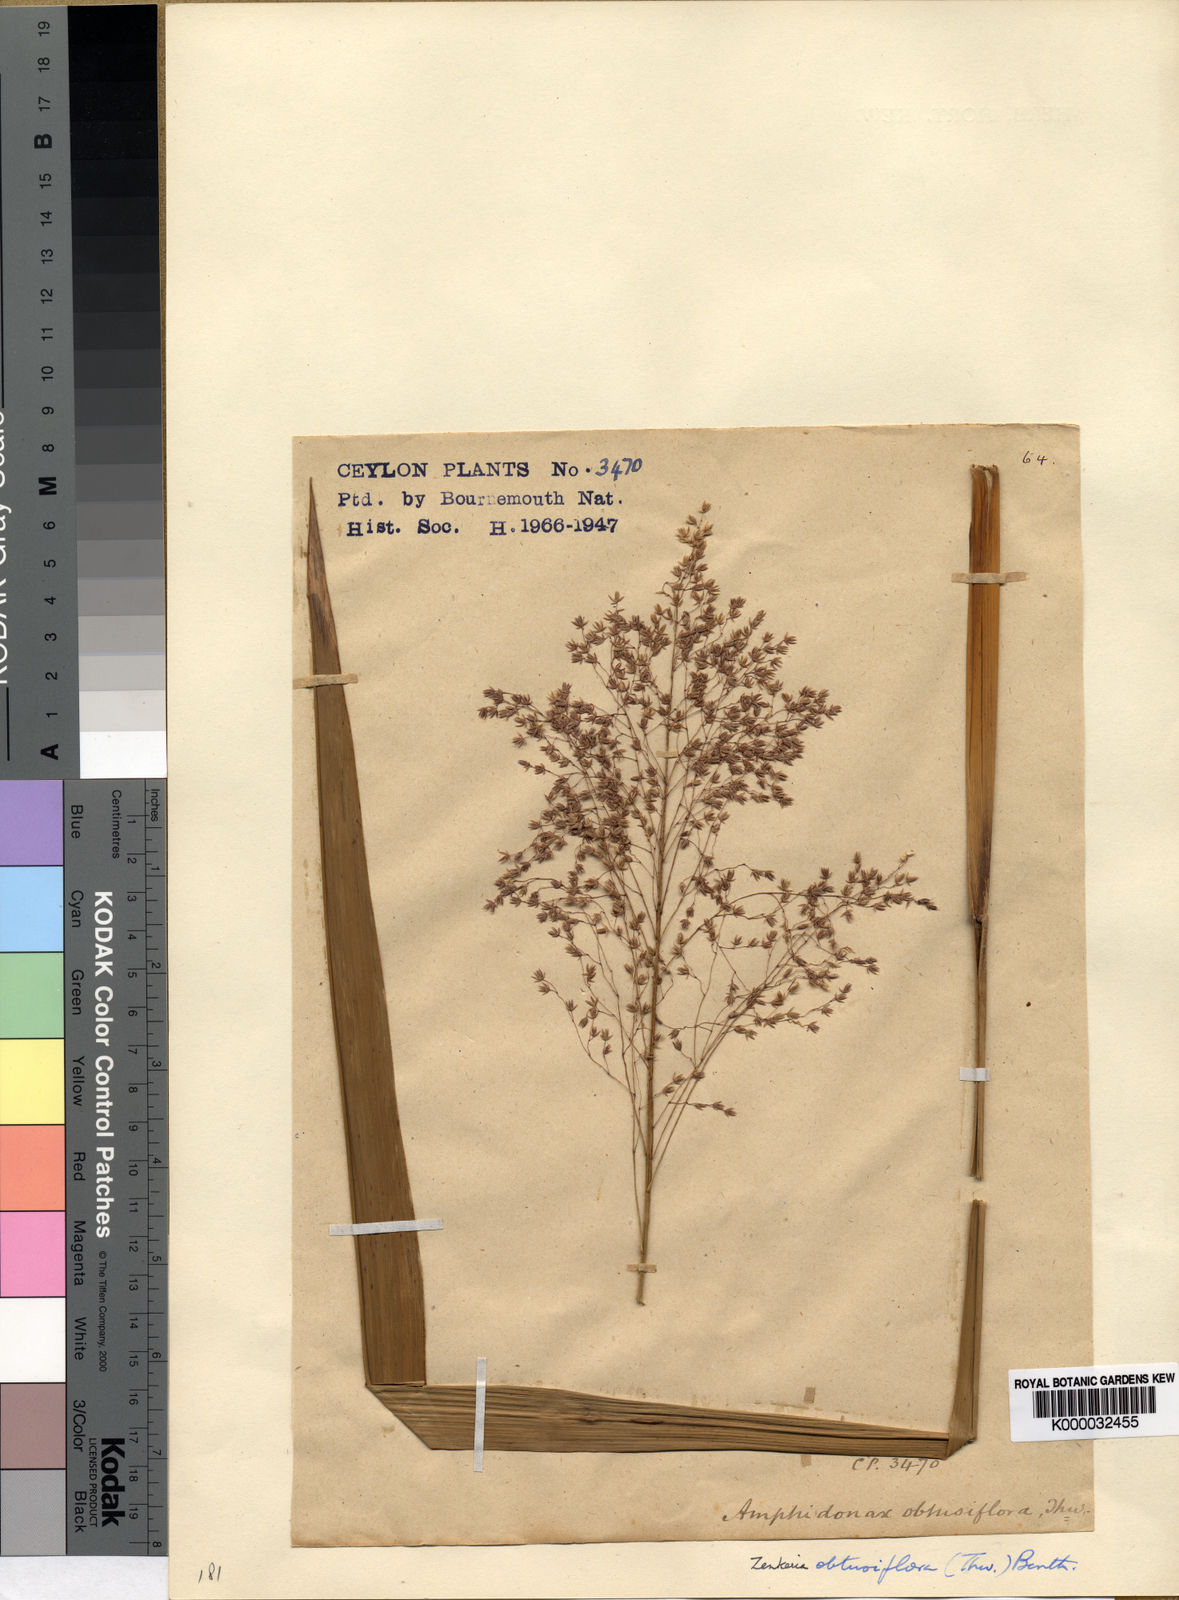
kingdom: Plantae
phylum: Tracheophyta
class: Liliopsida
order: Poales
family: Poaceae
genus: Zenkeria
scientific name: Zenkeria obtusiflora
